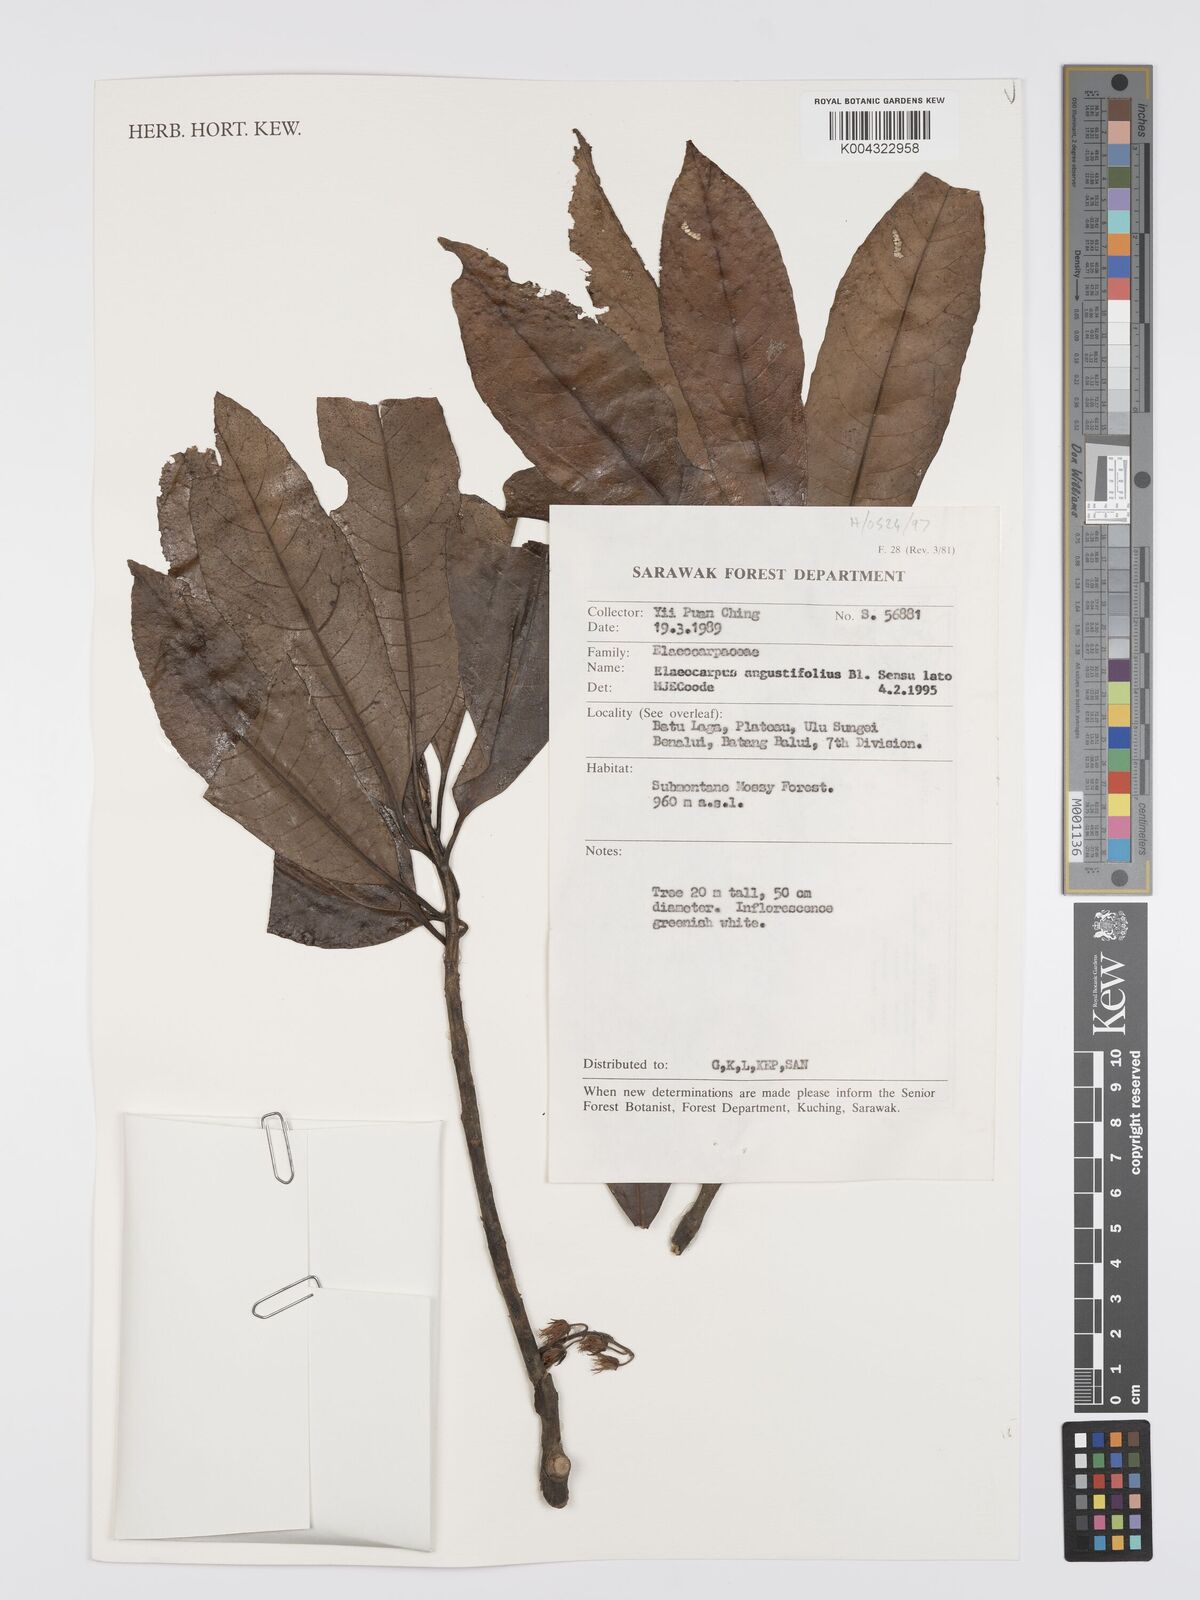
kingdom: Plantae
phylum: Tracheophyta
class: Magnoliopsida
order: Oxalidales
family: Elaeocarpaceae
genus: Elaeocarpus
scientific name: Elaeocarpus
